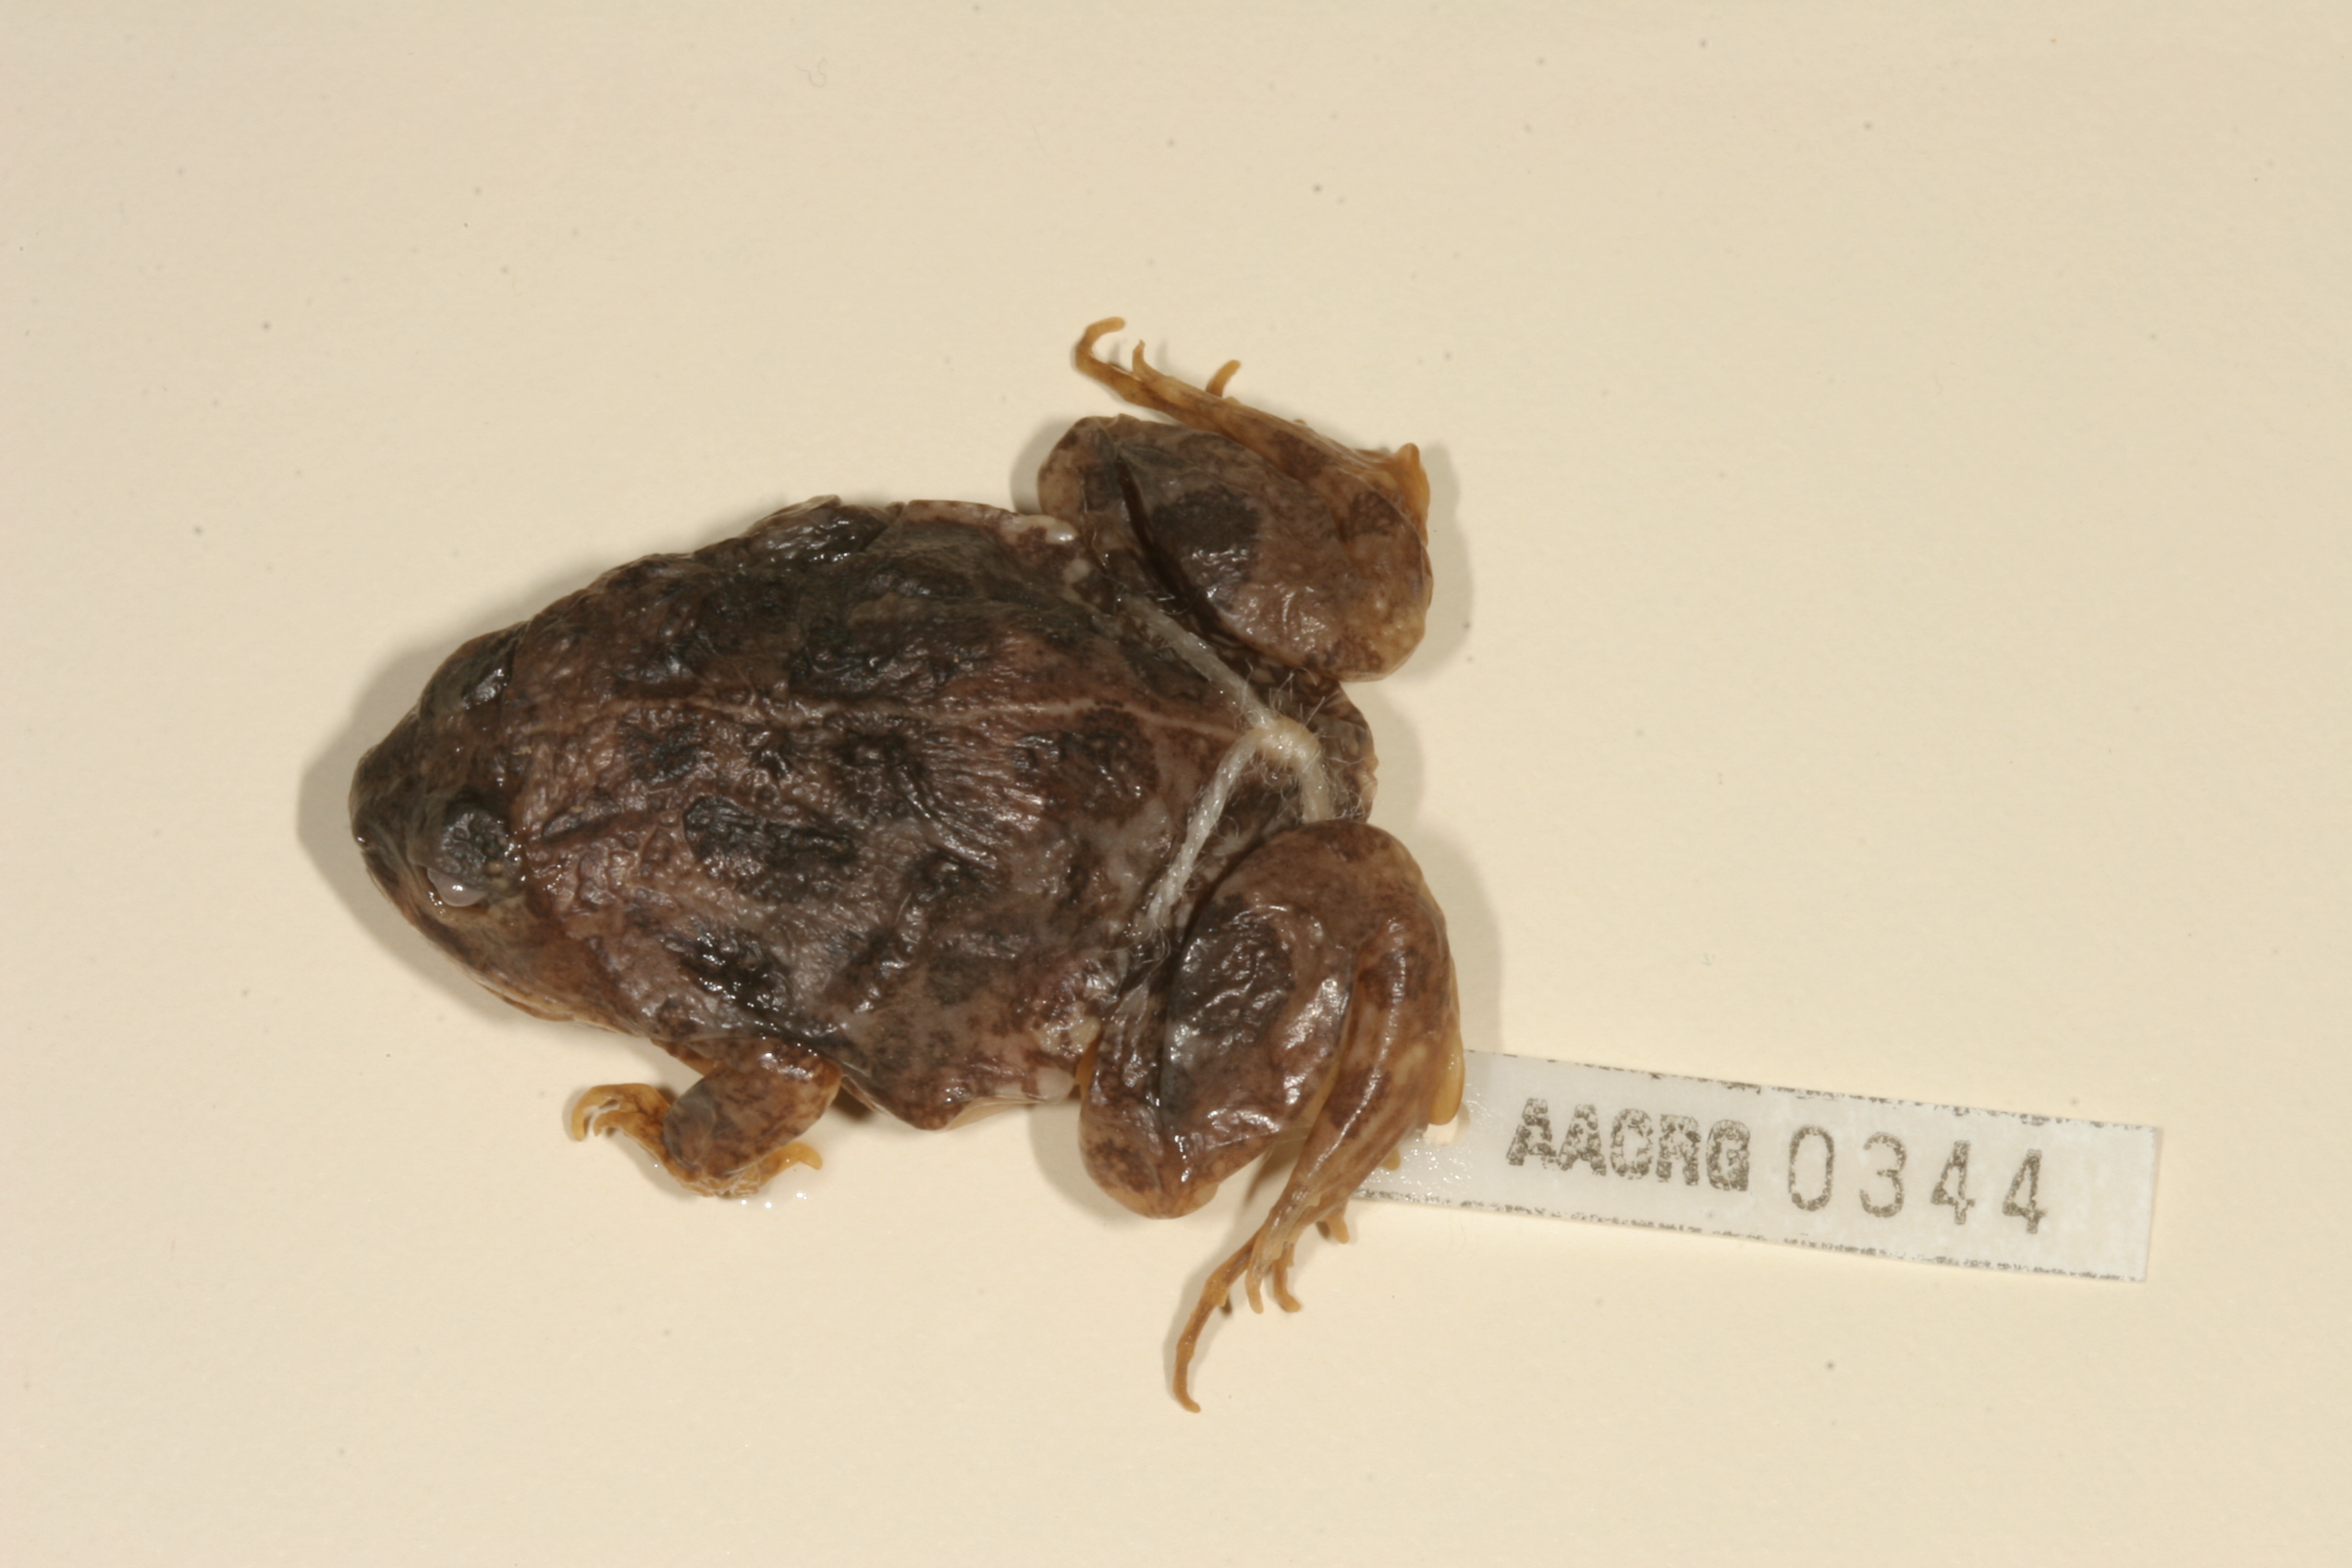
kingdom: Animalia
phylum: Chordata
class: Amphibia
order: Anura
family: Pyxicephalidae
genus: Tomopterna
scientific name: Tomopterna cryptotis
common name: Catequero bullfrog
